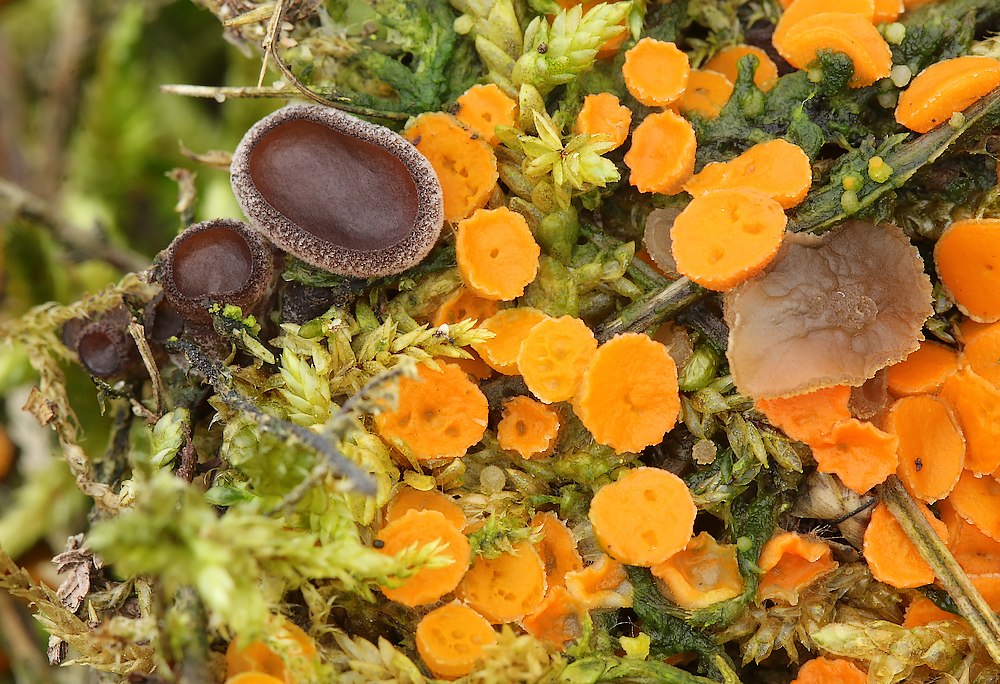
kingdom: Fungi
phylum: Ascomycota
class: Pezizomycetes
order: Pezizales
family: Pezizaceae
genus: Peziza
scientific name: Peziza perparva
